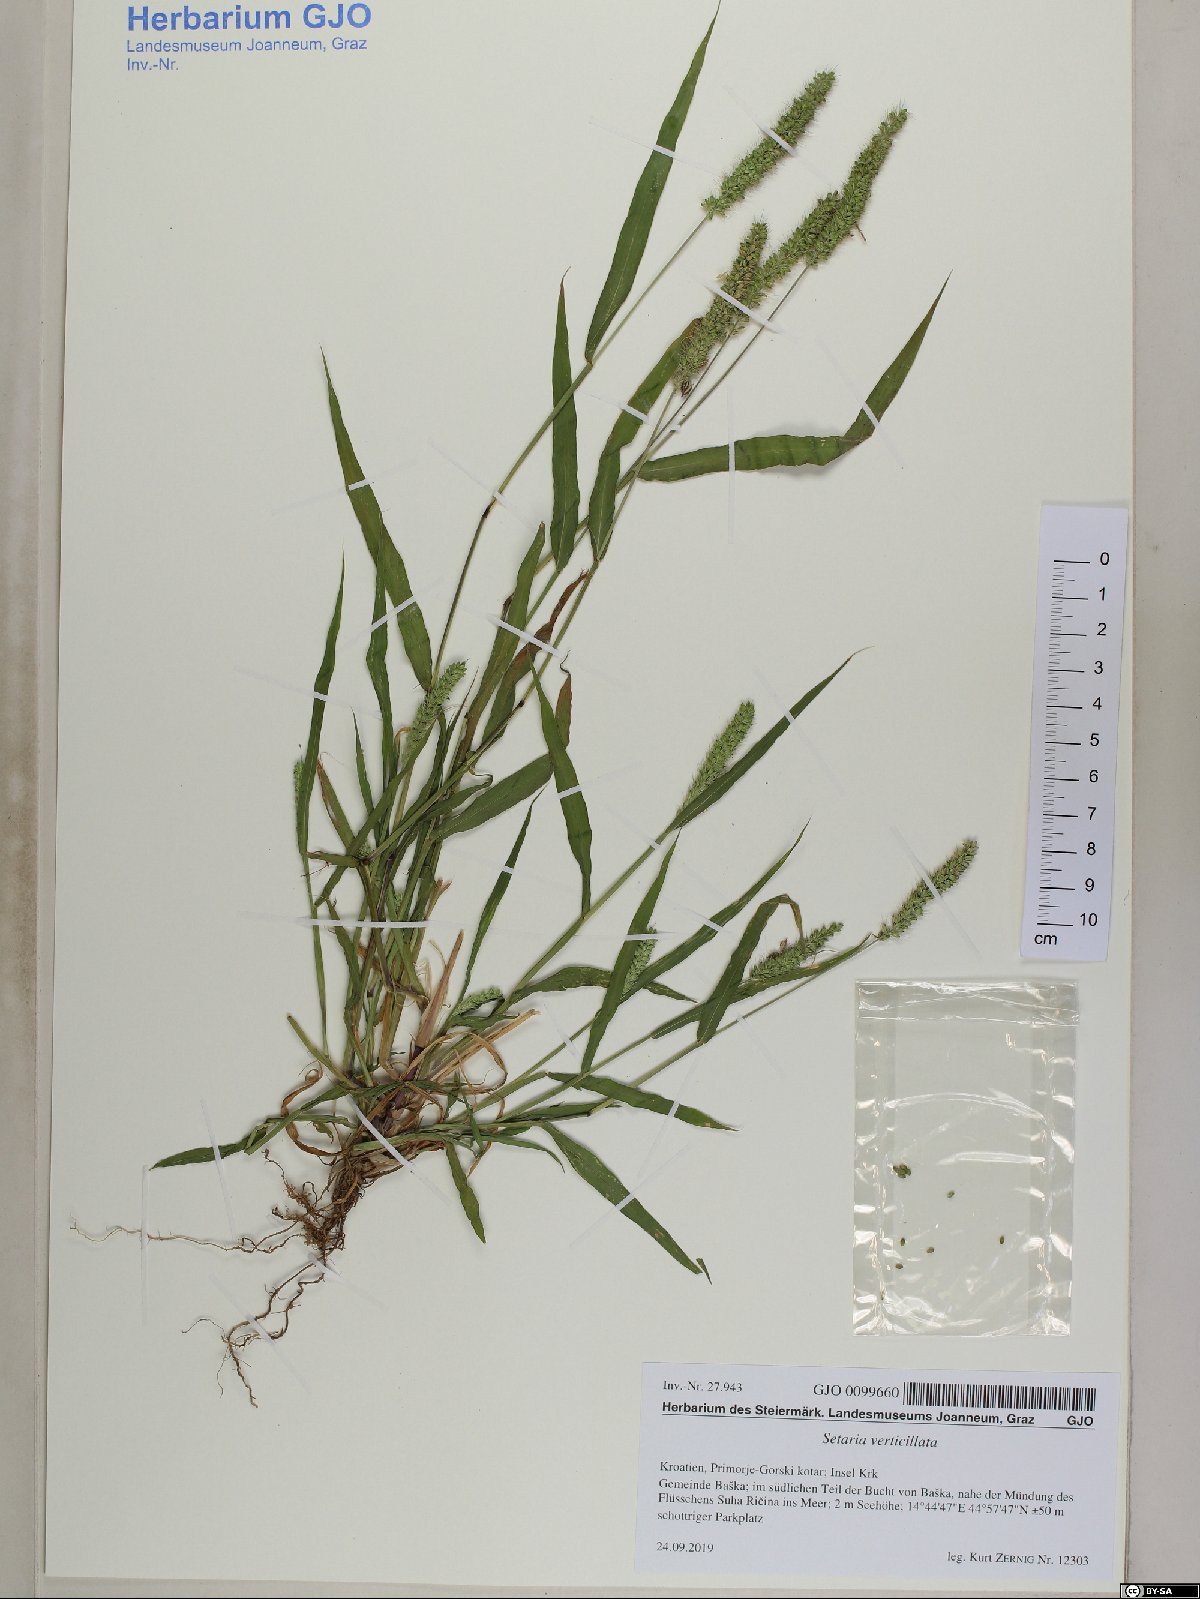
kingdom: Plantae
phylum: Tracheophyta
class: Liliopsida
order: Poales
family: Poaceae
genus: Setaria
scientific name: Setaria verticillata
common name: Hooked bristlegrass
